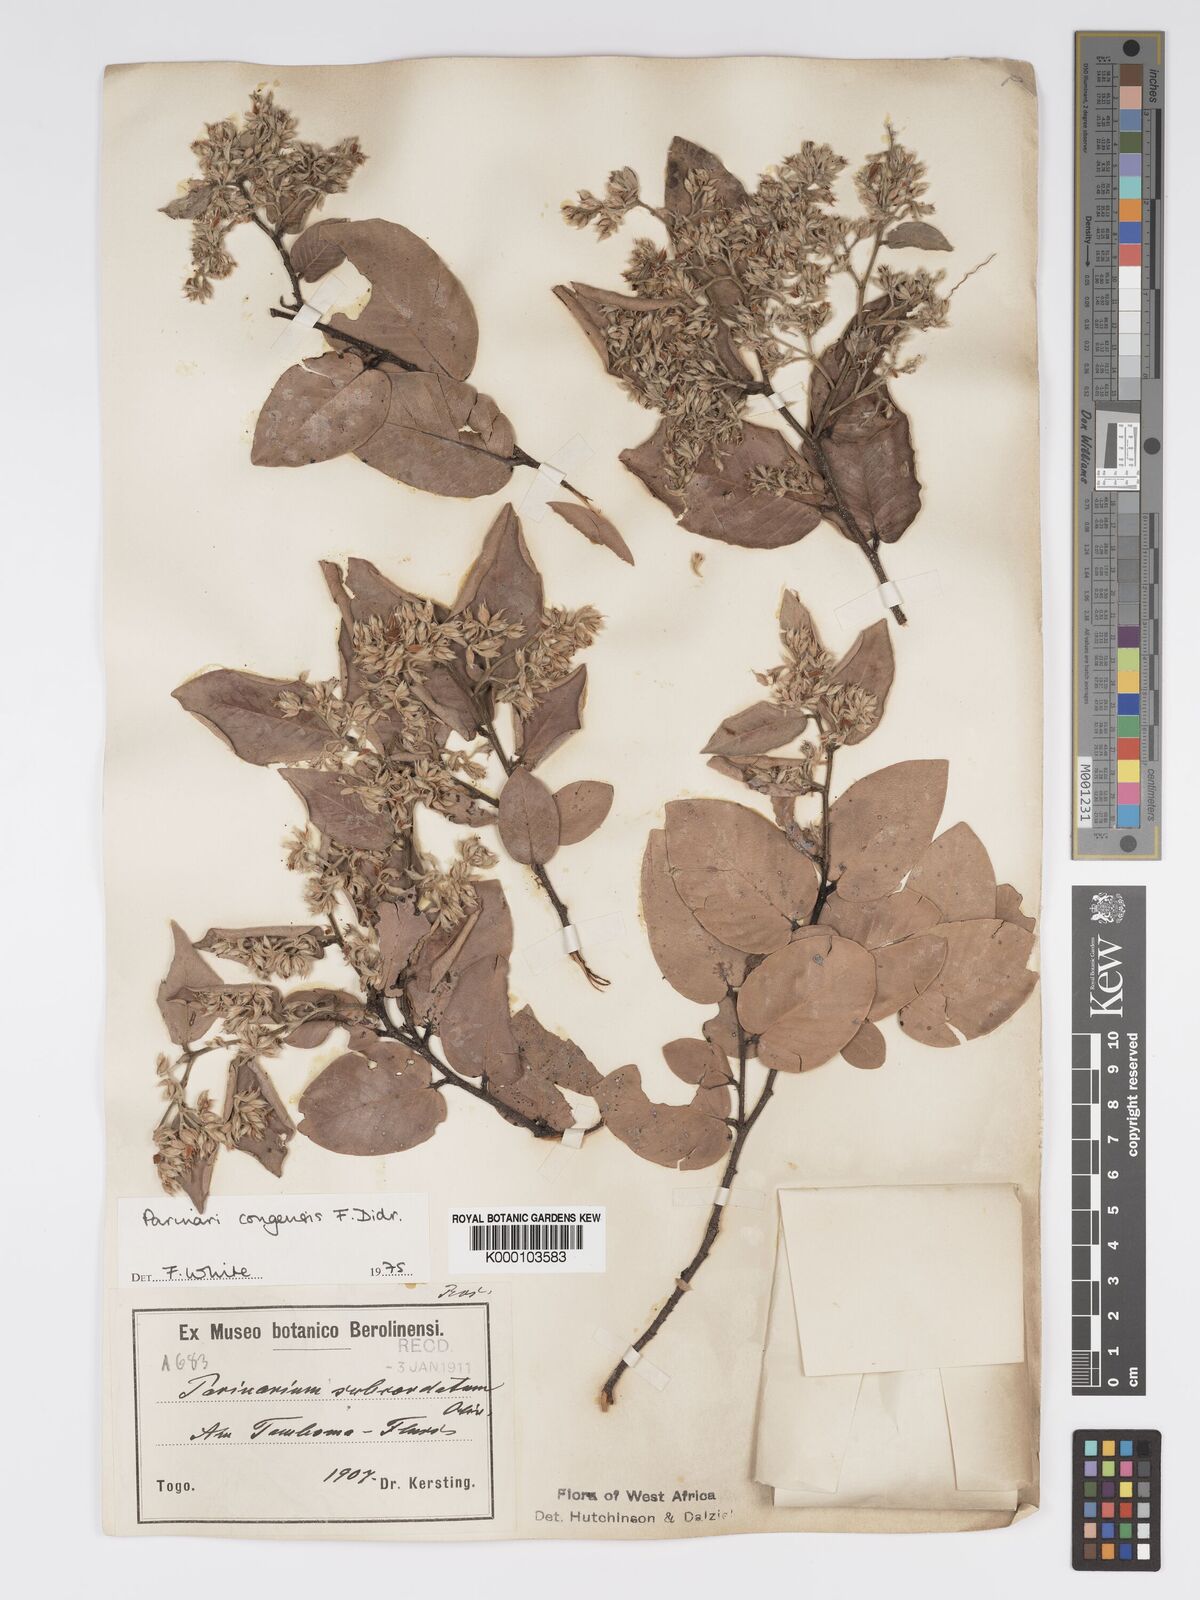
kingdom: Plantae
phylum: Tracheophyta
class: Magnoliopsida
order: Malpighiales
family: Chrysobalanaceae
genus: Parinari
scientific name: Parinari congensis
